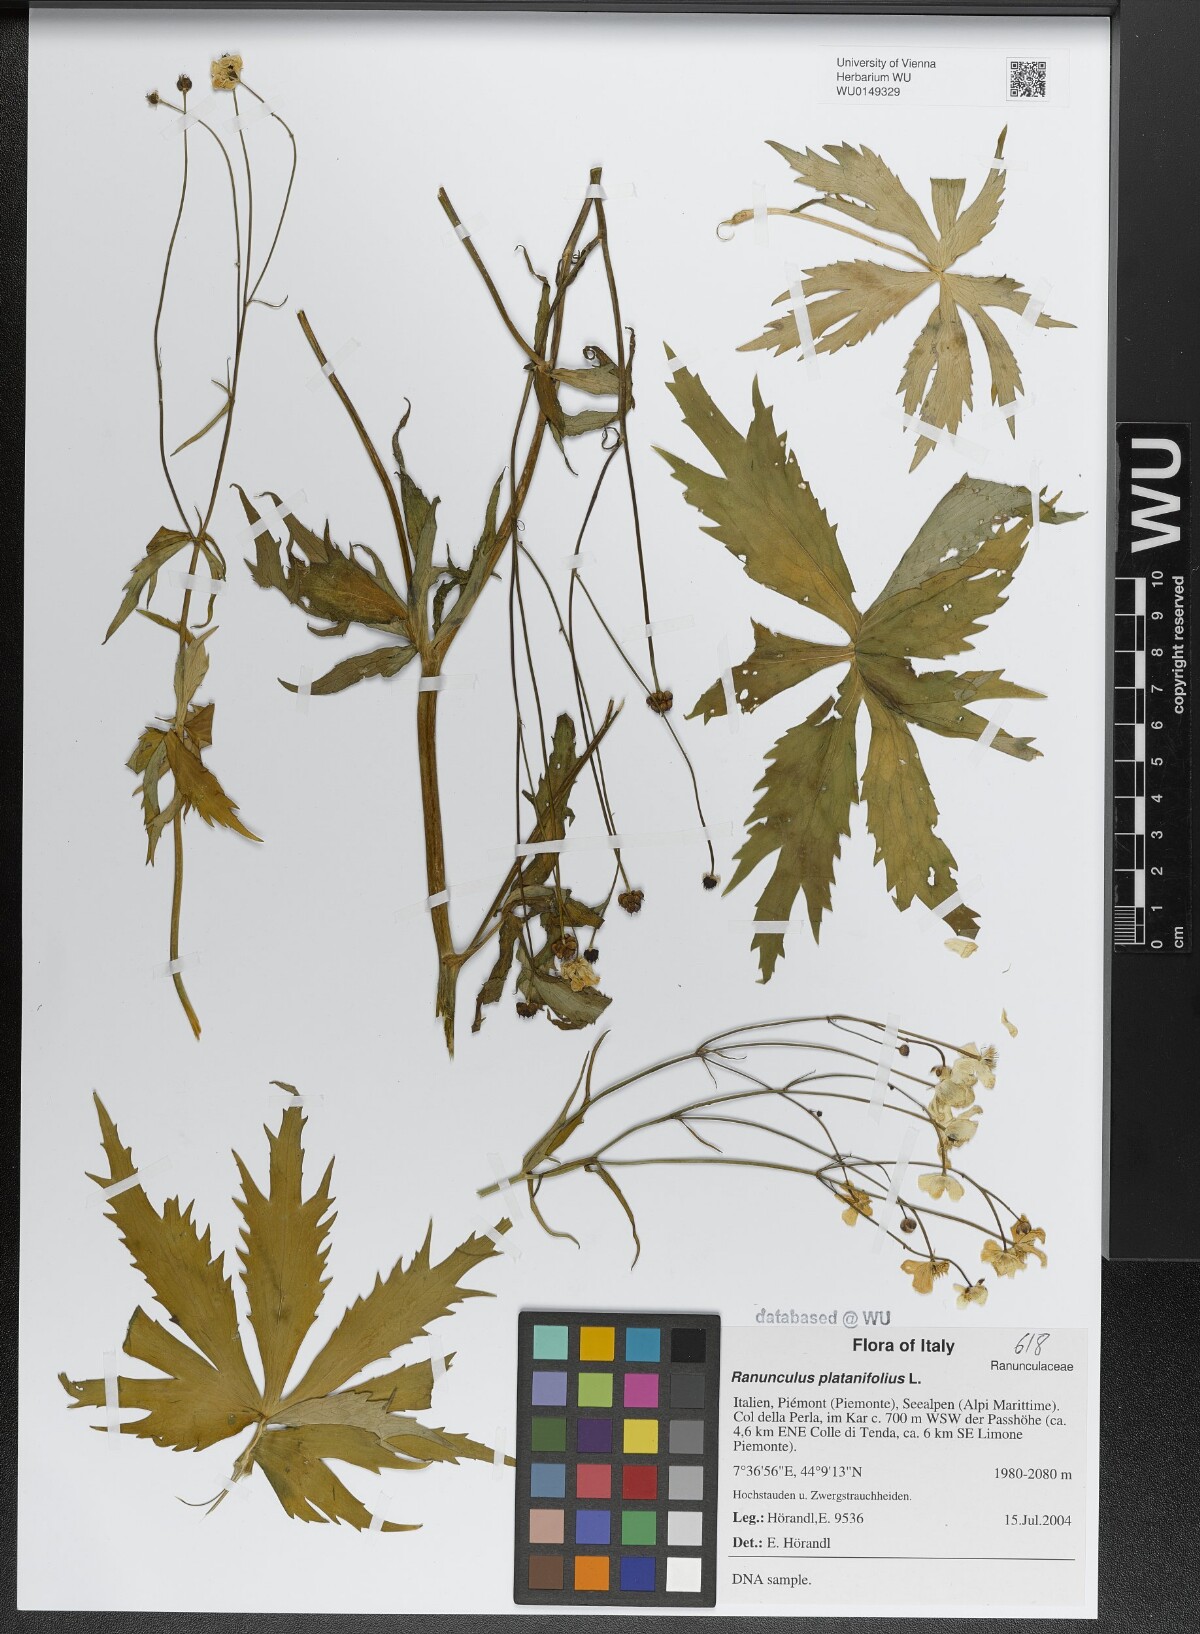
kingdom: Plantae
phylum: Tracheophyta
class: Magnoliopsida
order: Ranunculales
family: Ranunculaceae
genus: Ranunculus
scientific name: Ranunculus platanifolius
